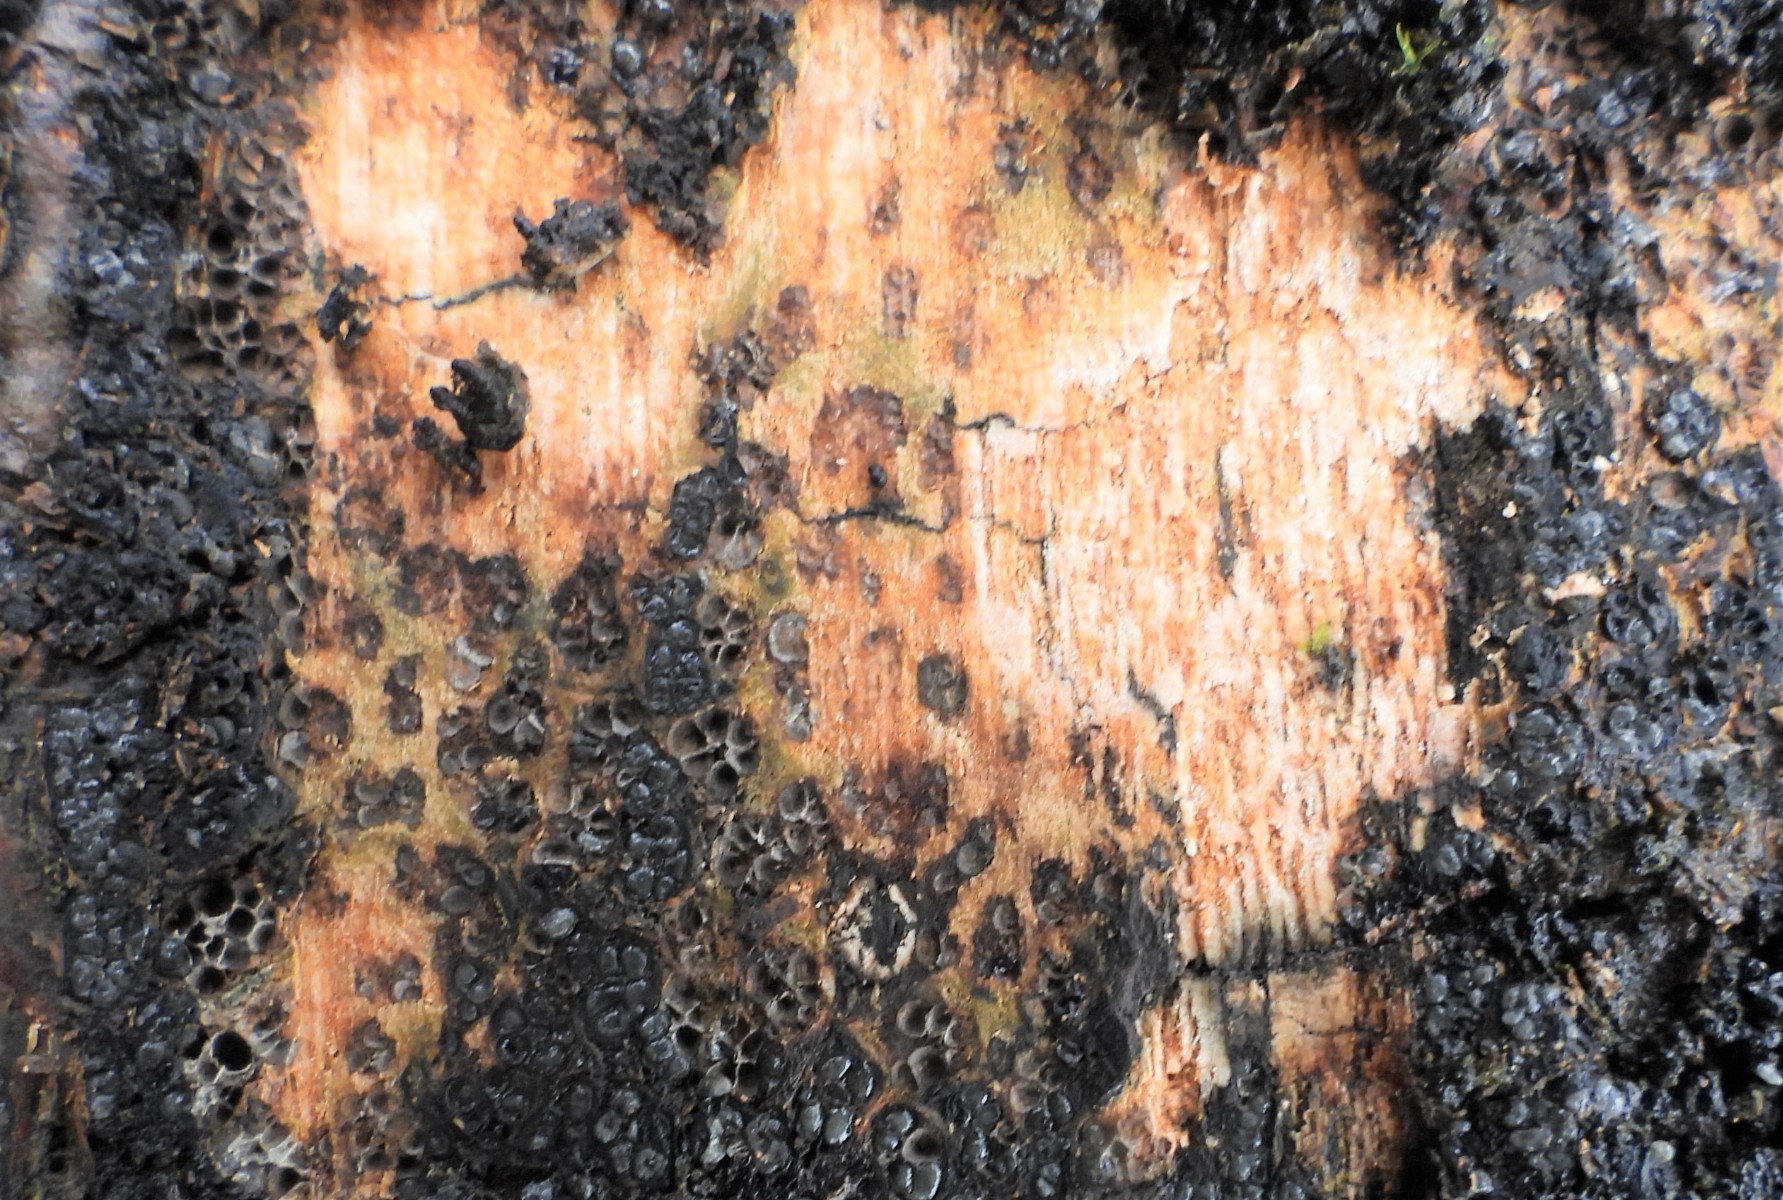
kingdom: Fungi
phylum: Ascomycota
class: Sordariomycetes
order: Xylariales
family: Melogrammataceae
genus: Melogramma
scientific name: Melogramma spiniferum
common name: bøgefod-kulhals
